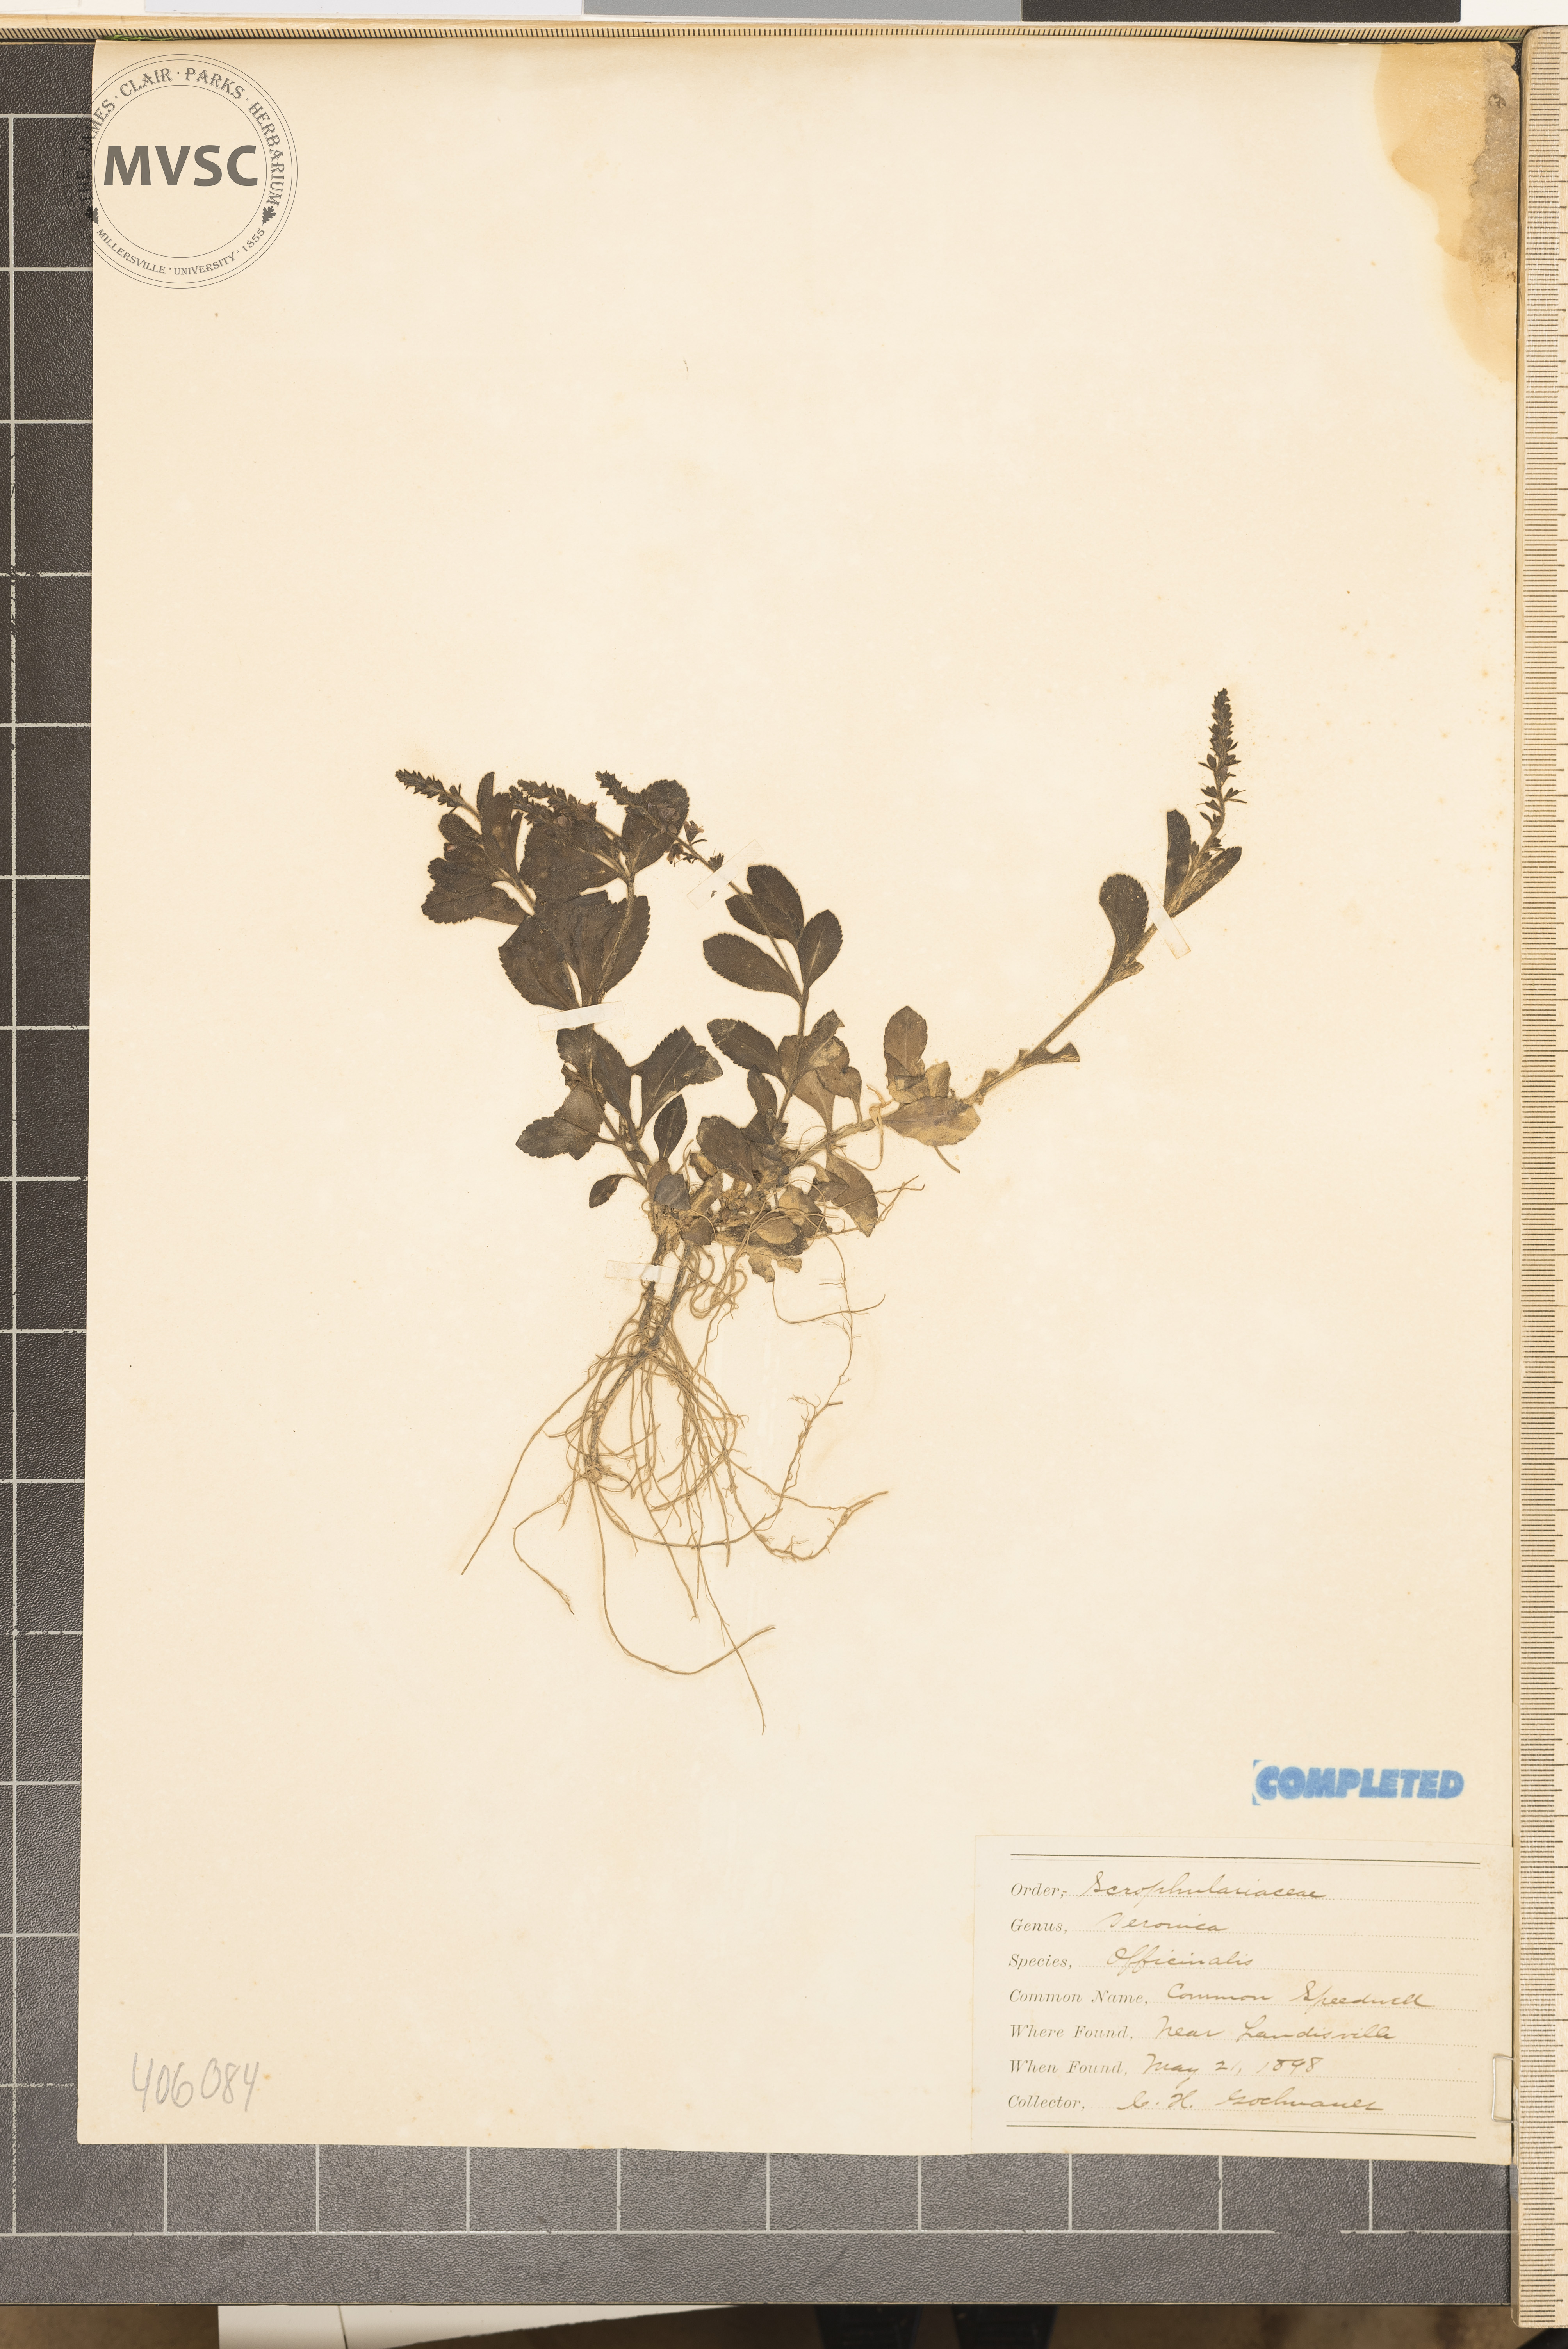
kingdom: Plantae
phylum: Tracheophyta
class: Magnoliopsida
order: Lamiales
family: Plantaginaceae
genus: Veronica
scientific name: Veronica officinalis
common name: Common speedwell
